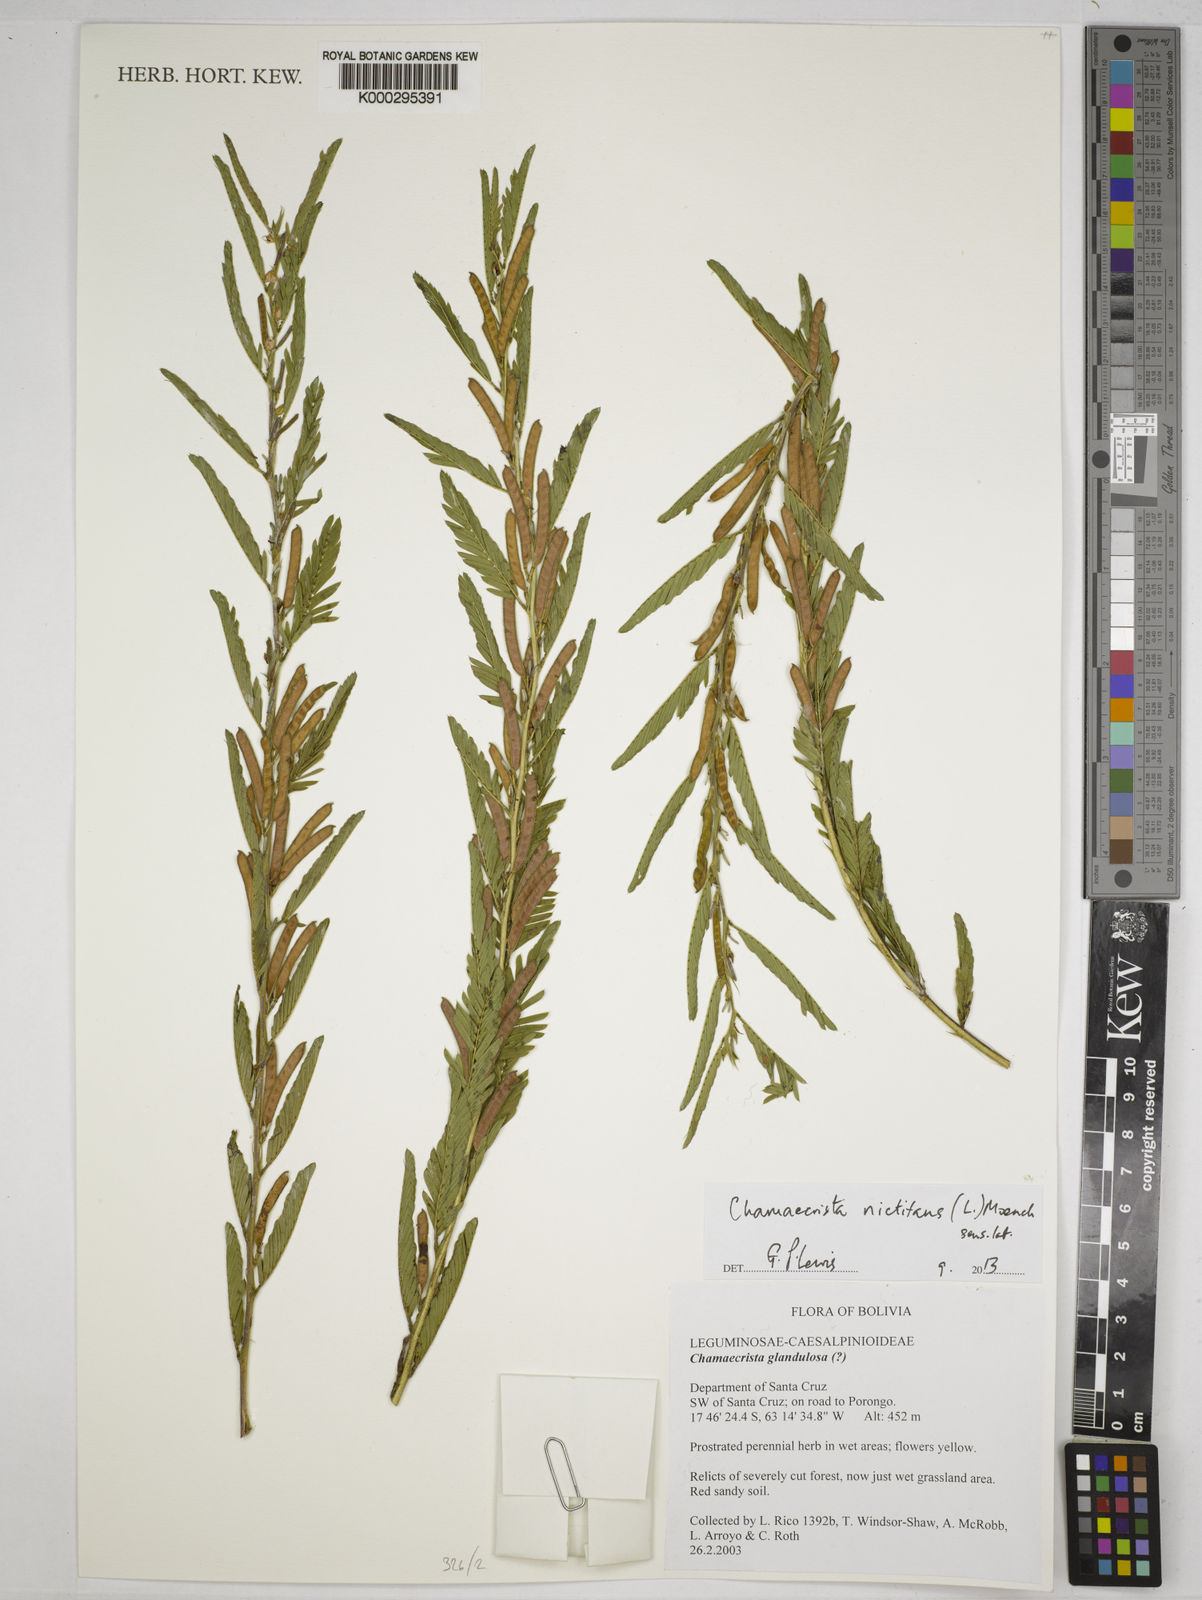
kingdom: Plantae
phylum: Tracheophyta
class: Magnoliopsida
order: Fabales
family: Fabaceae
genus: Chamaecrista
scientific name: Chamaecrista glandulosa
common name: Wild peas
